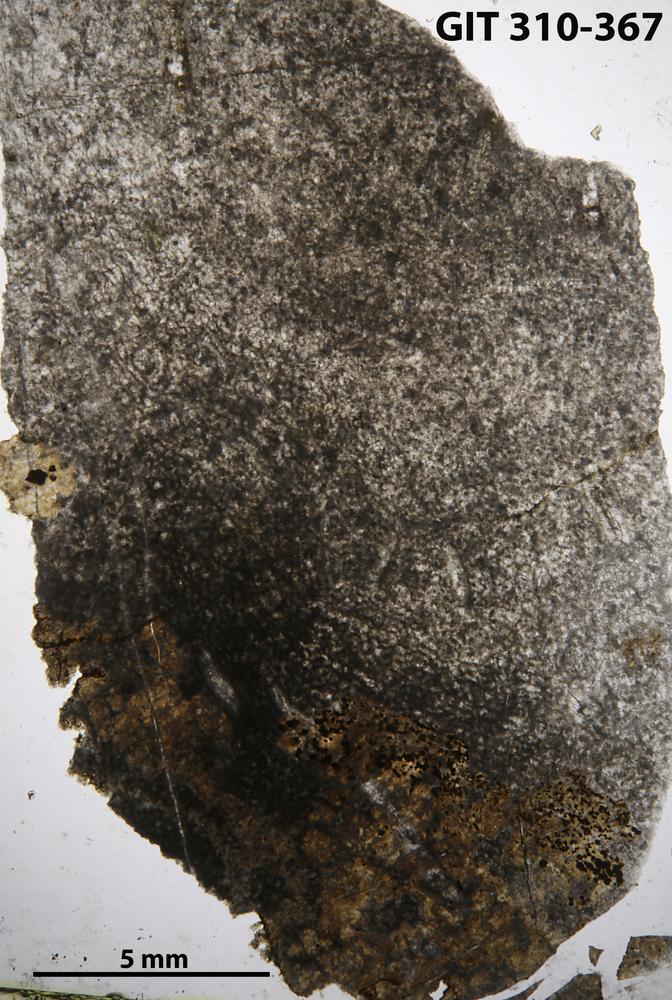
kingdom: Animalia
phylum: Porifera
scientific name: Porifera
